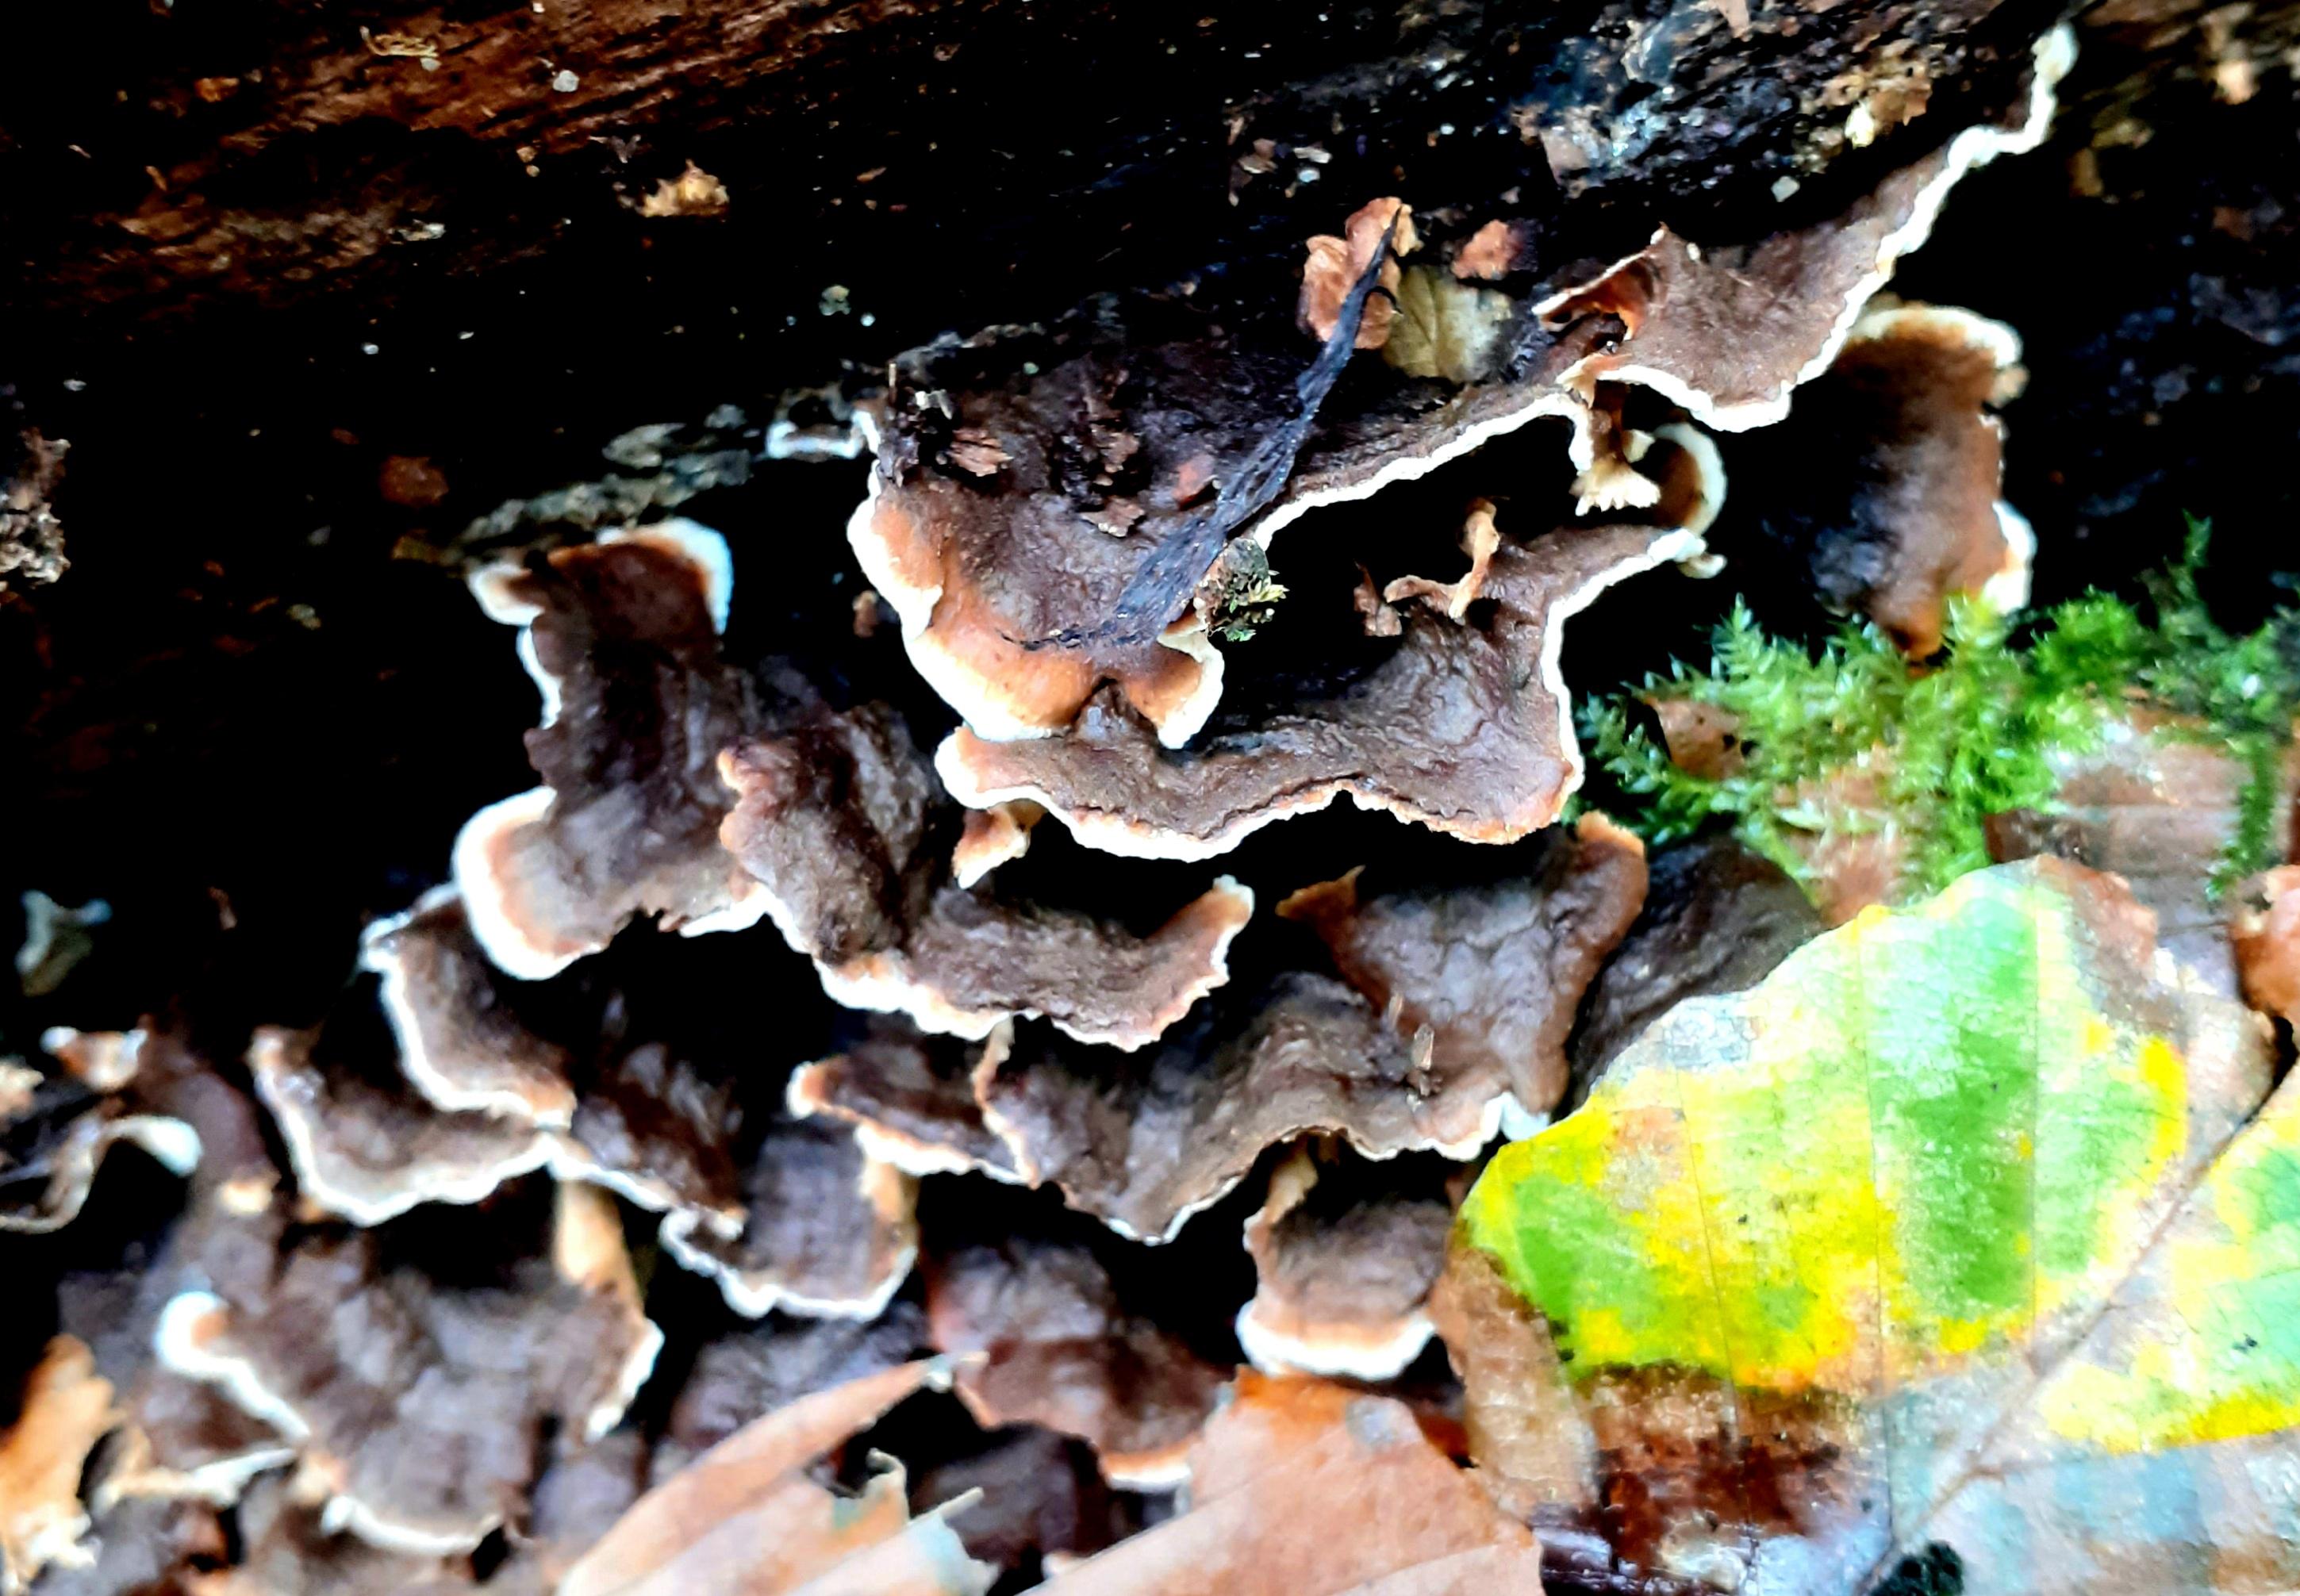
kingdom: Fungi
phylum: Basidiomycota
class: Agaricomycetes
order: Russulales
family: Hericiaceae
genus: Laxitextum
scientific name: Laxitextum bicolor
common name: tvefarvet filtskind
